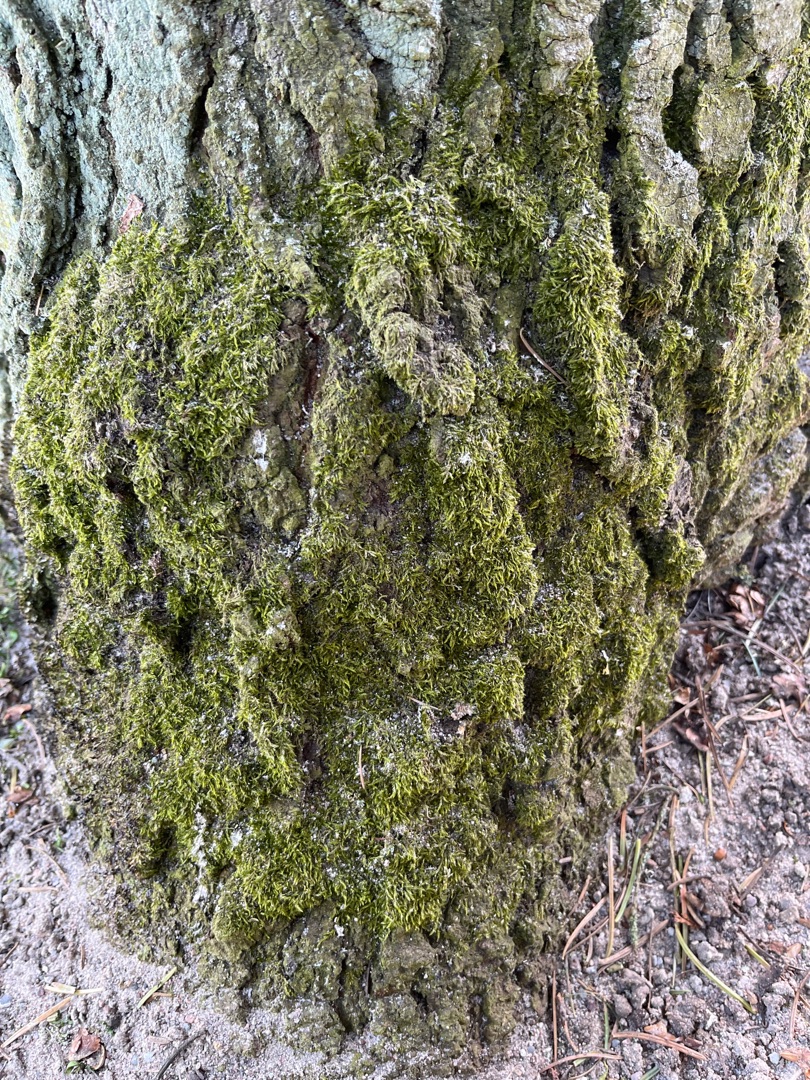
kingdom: Plantae
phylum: Bryophyta
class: Bryopsida
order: Hypnales
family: Hypnaceae
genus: Hypnum
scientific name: Hypnum
